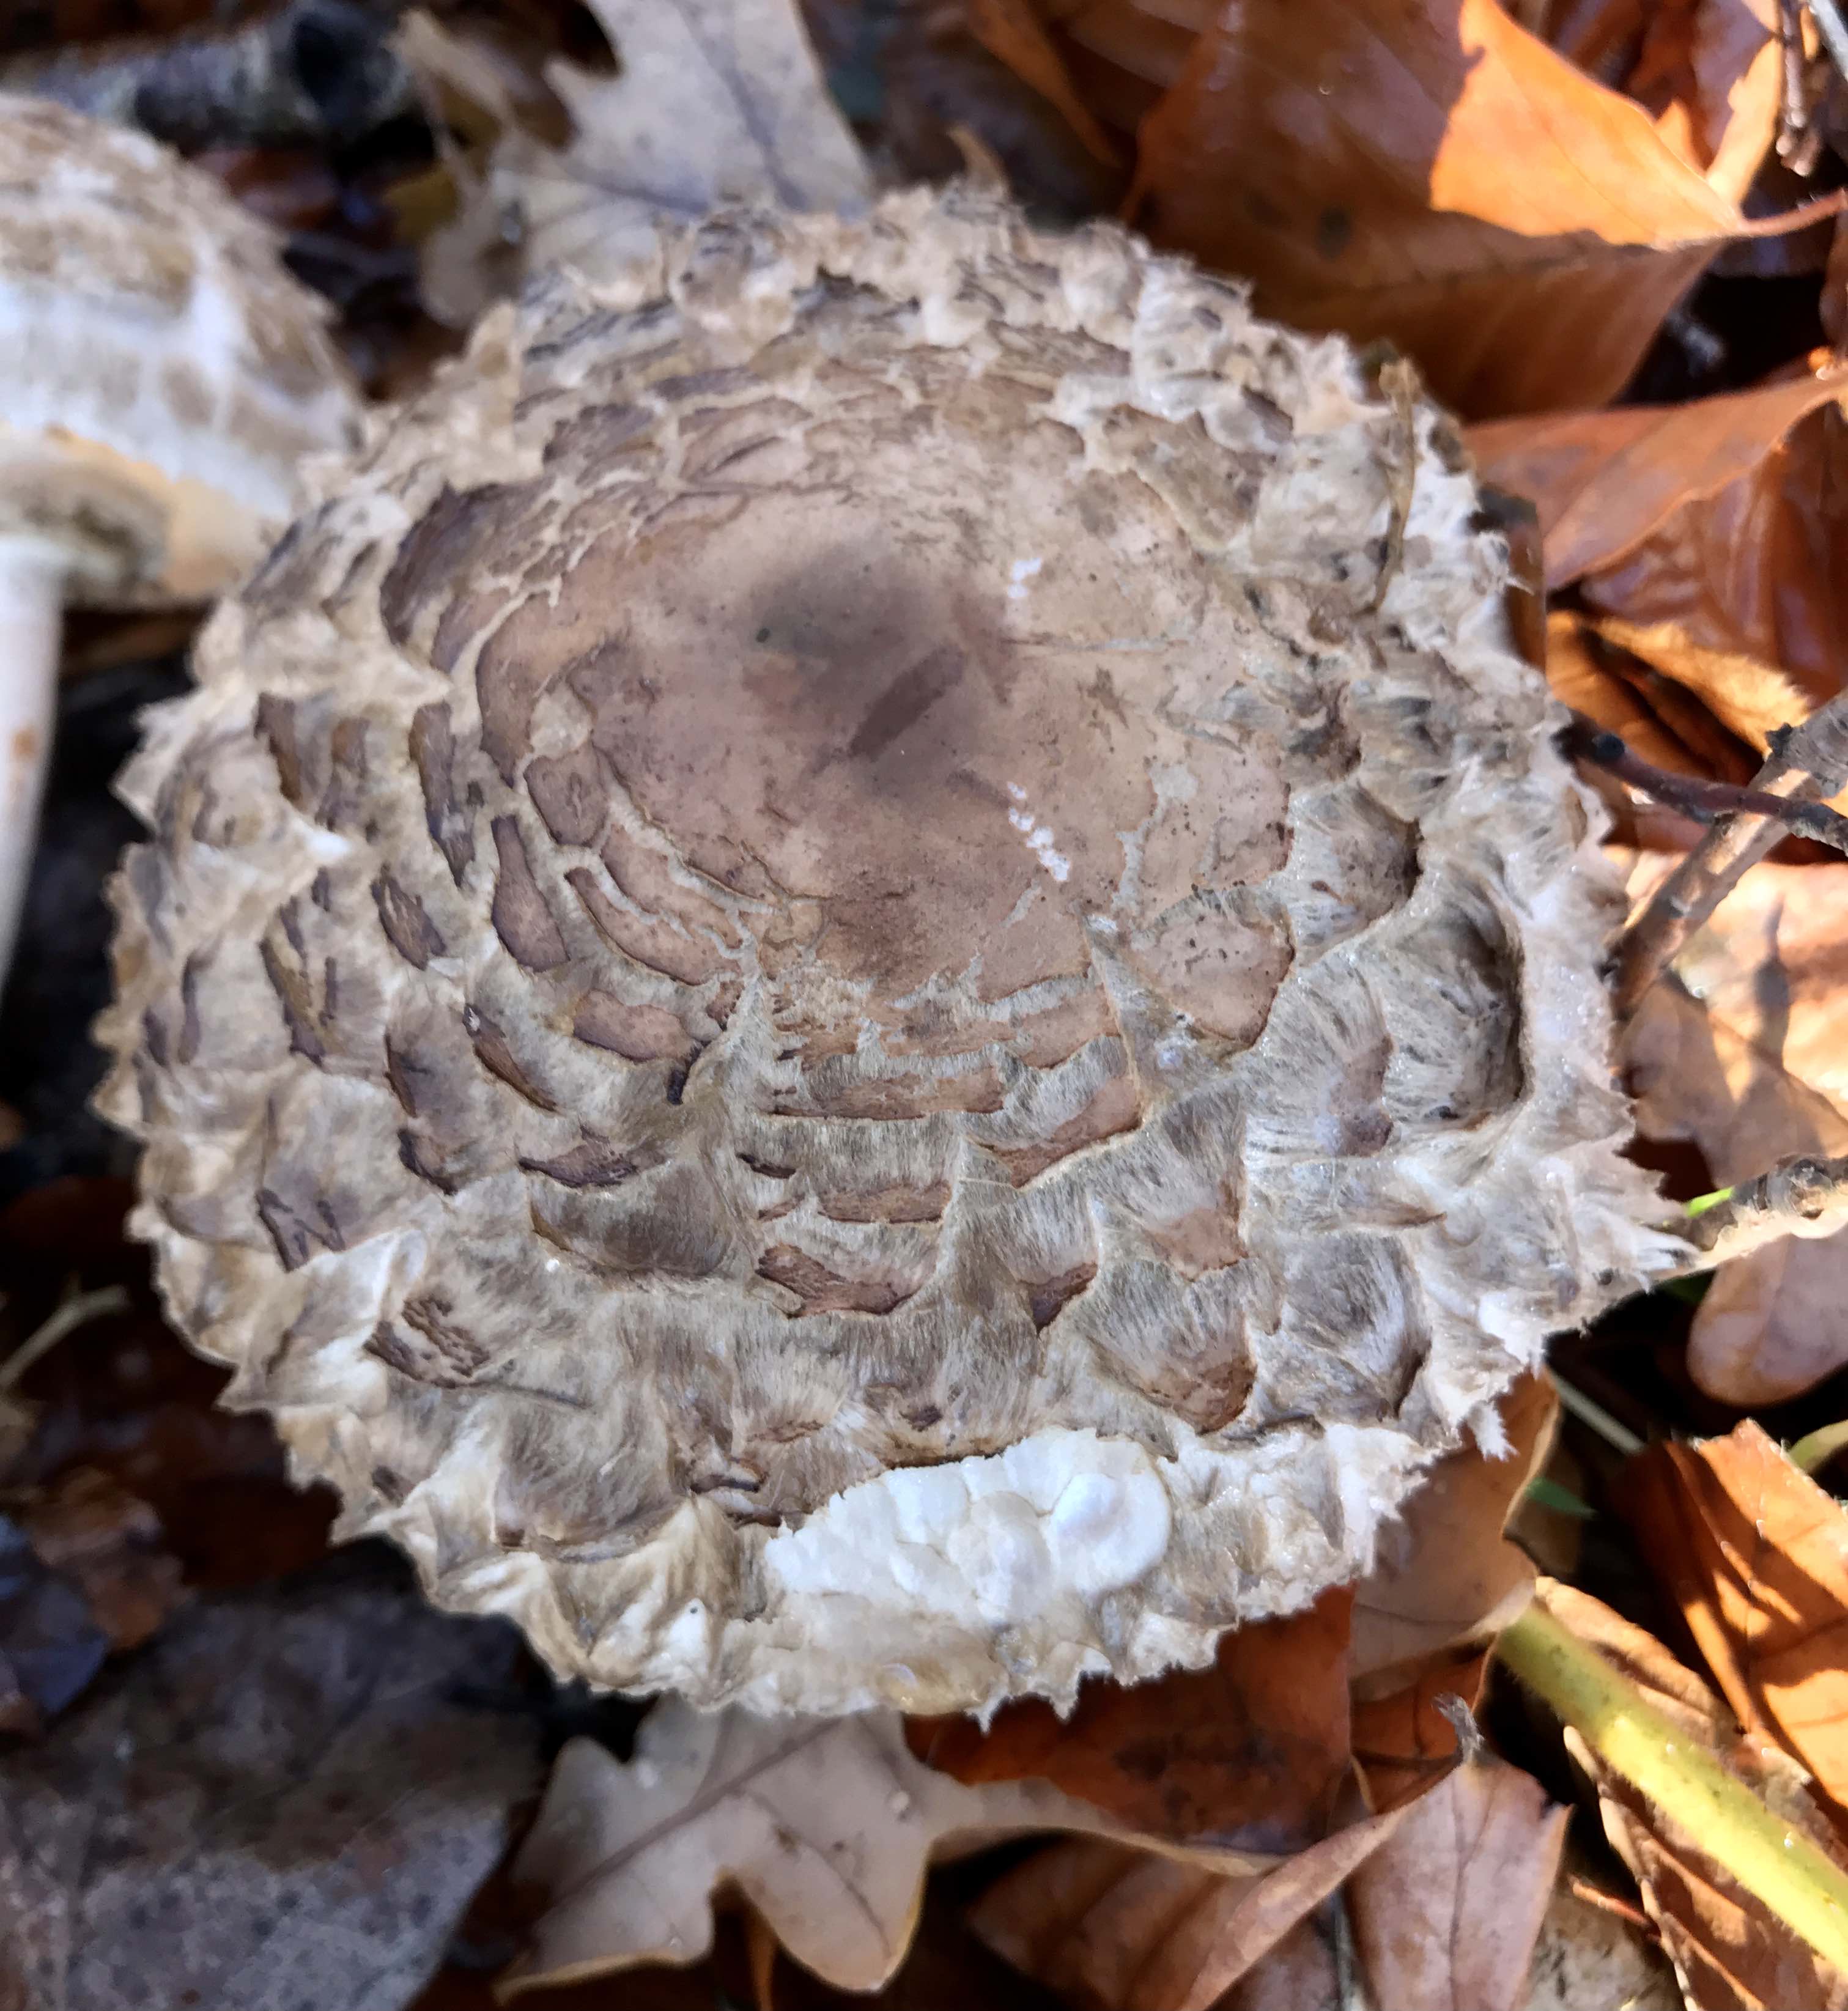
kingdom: Fungi
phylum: Basidiomycota
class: Agaricomycetes
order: Agaricales
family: Agaricaceae
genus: Chlorophyllum
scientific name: Chlorophyllum olivieri
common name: almindelig rabarberhat
